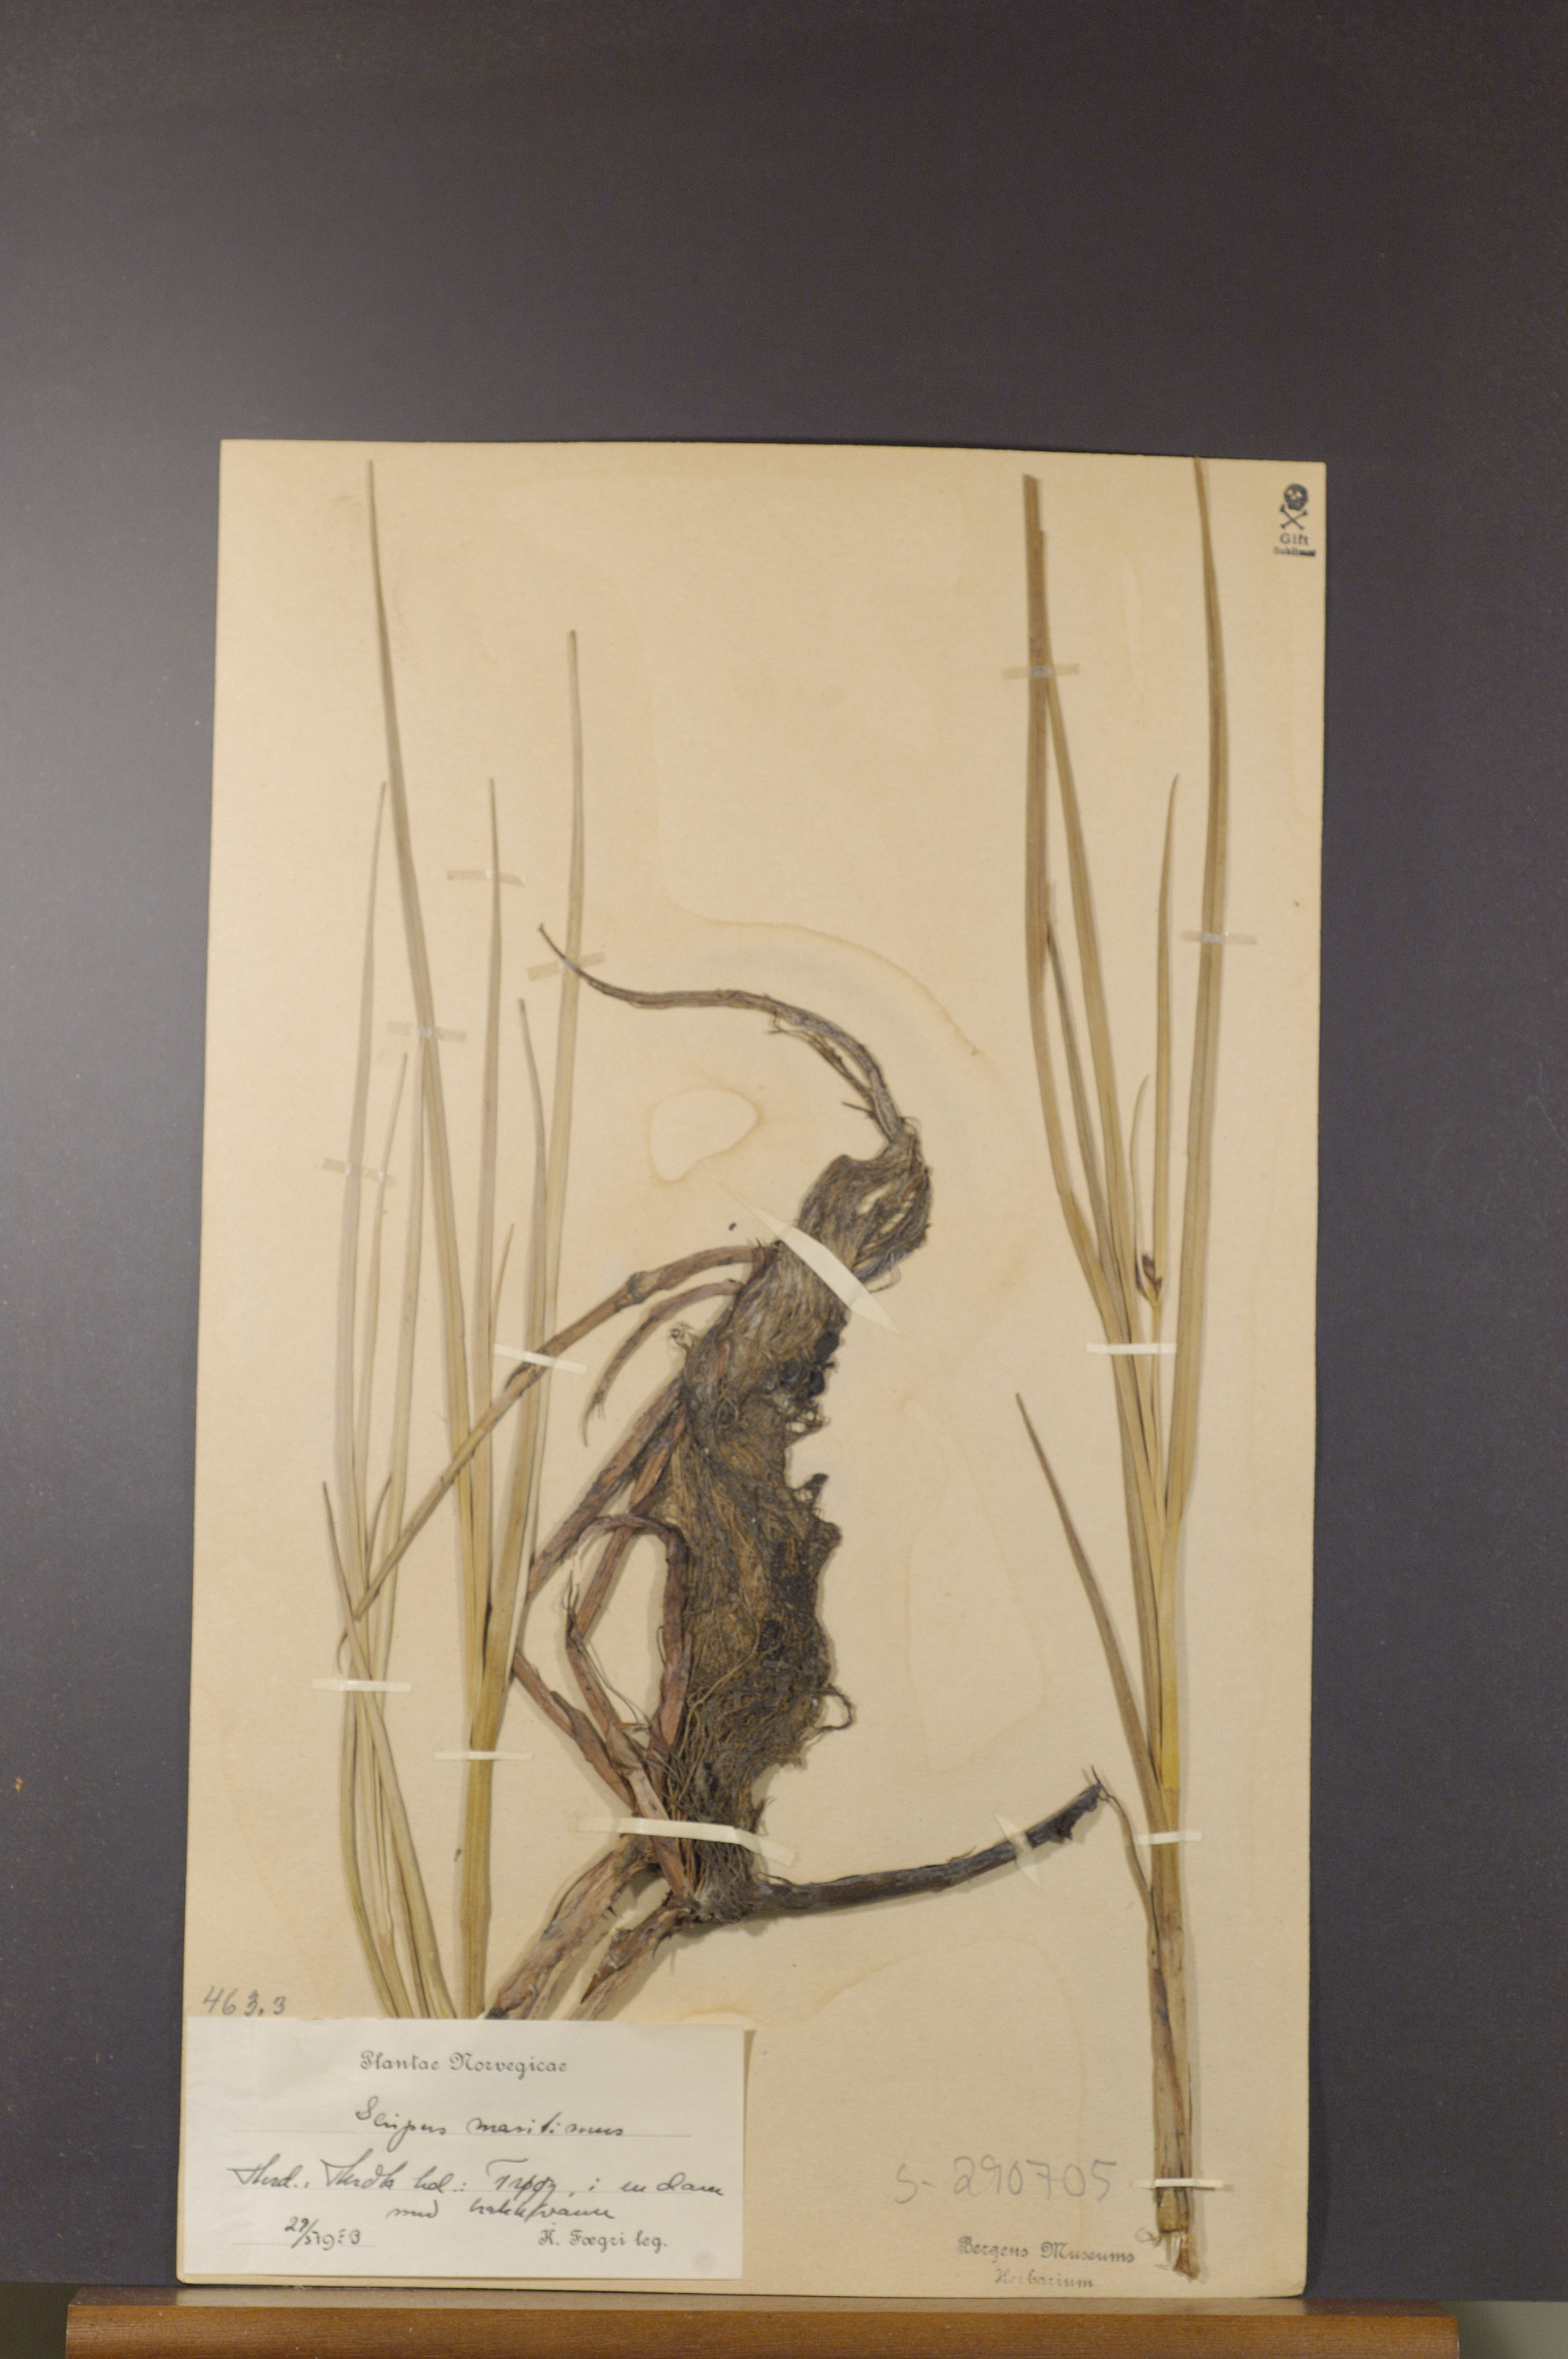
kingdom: Plantae
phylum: Tracheophyta
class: Liliopsida
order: Poales
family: Cyperaceae
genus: Bolboschoenus
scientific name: Bolboschoenus maritimus
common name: Sea club-rush
